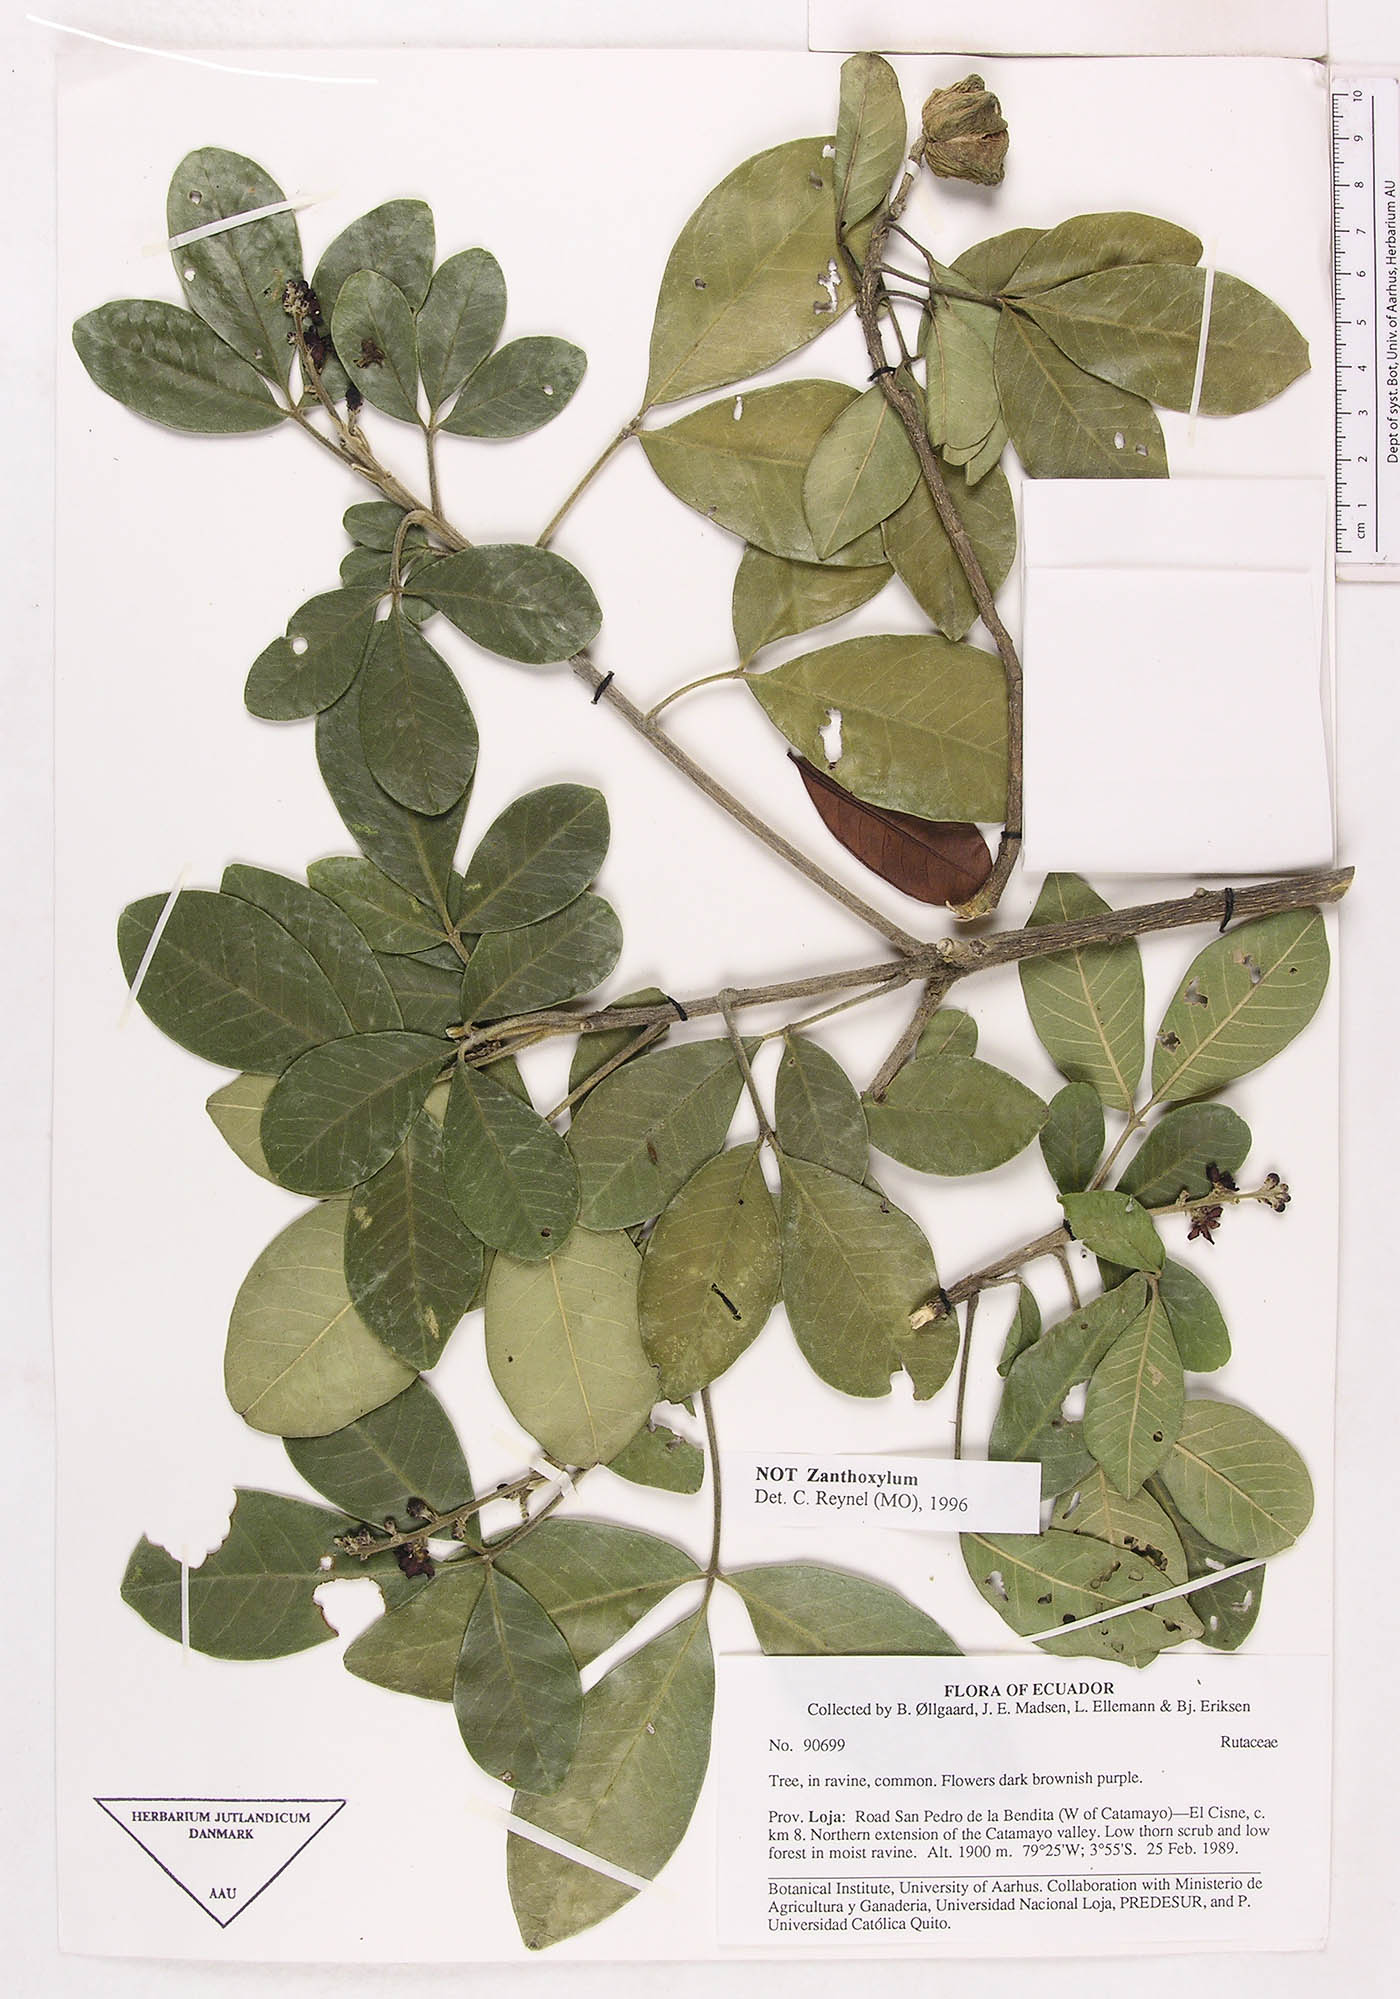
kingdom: Animalia
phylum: Arthropoda
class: Insecta
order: Diptera
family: Tabanidae
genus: Esenbeckia
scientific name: Esenbeckia warscewiczii
